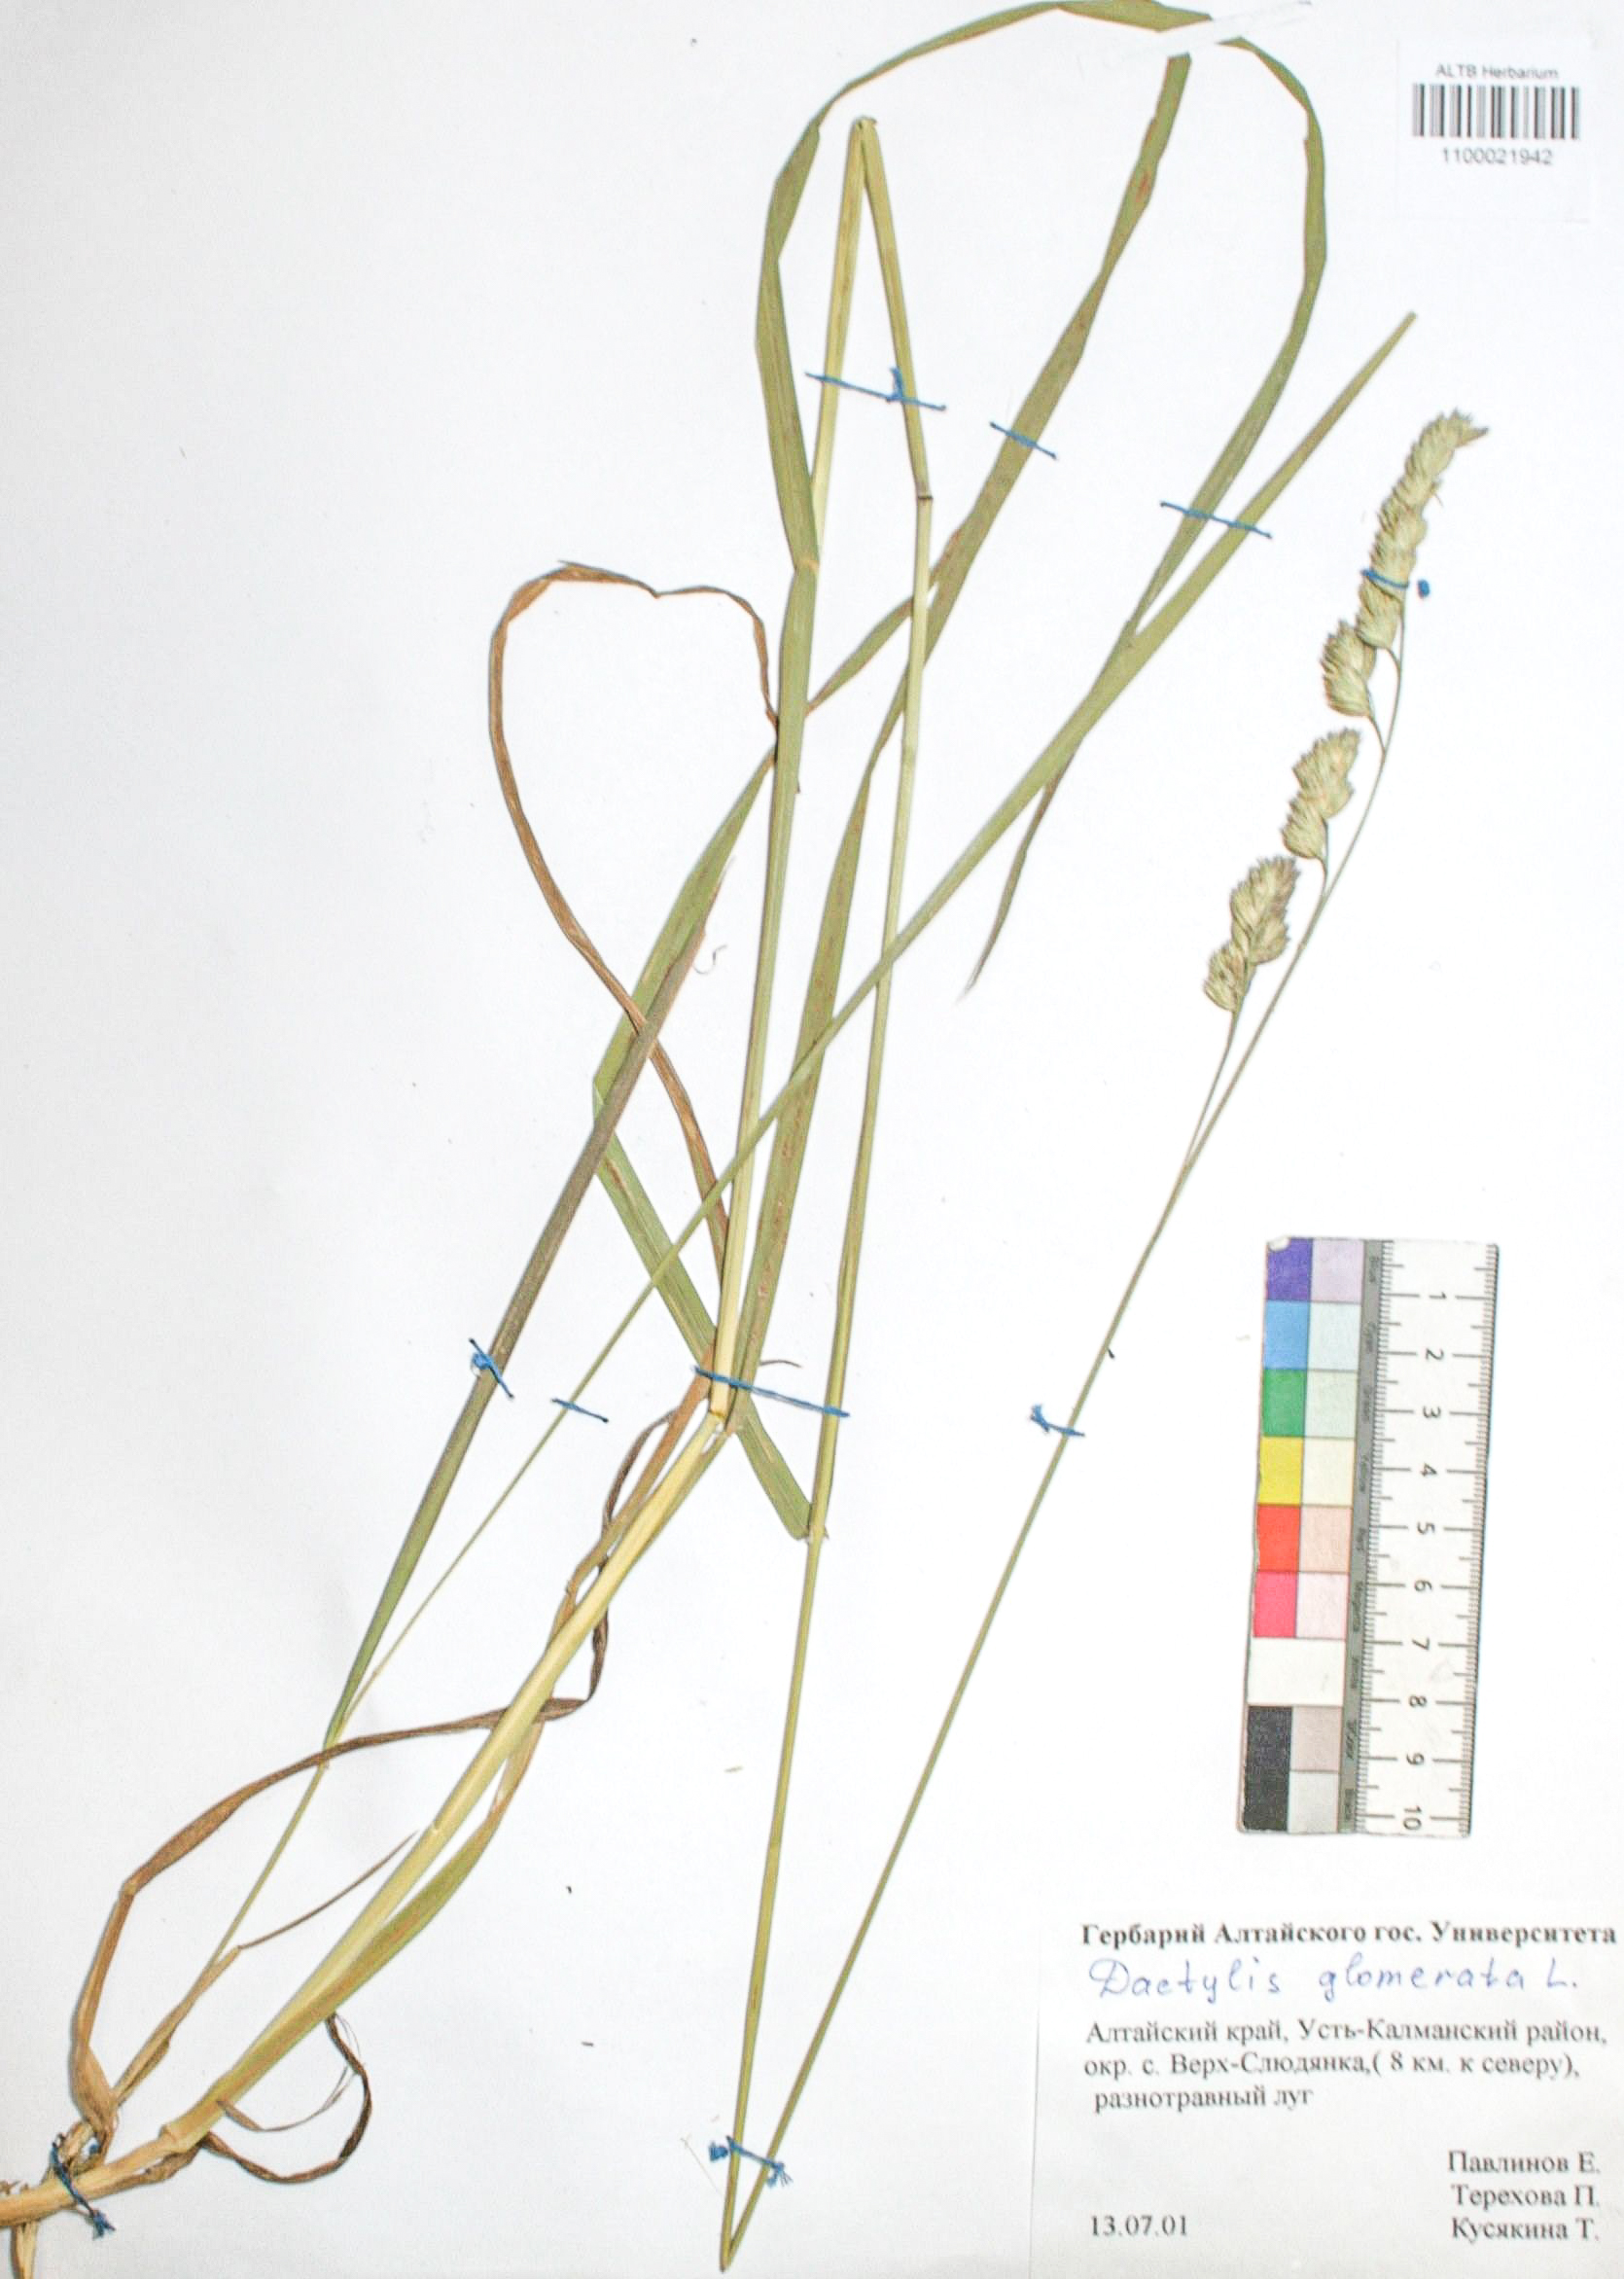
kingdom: Plantae
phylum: Tracheophyta
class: Liliopsida
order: Poales
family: Poaceae
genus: Dactylis
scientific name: Dactylis glomerata
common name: Orchardgrass
